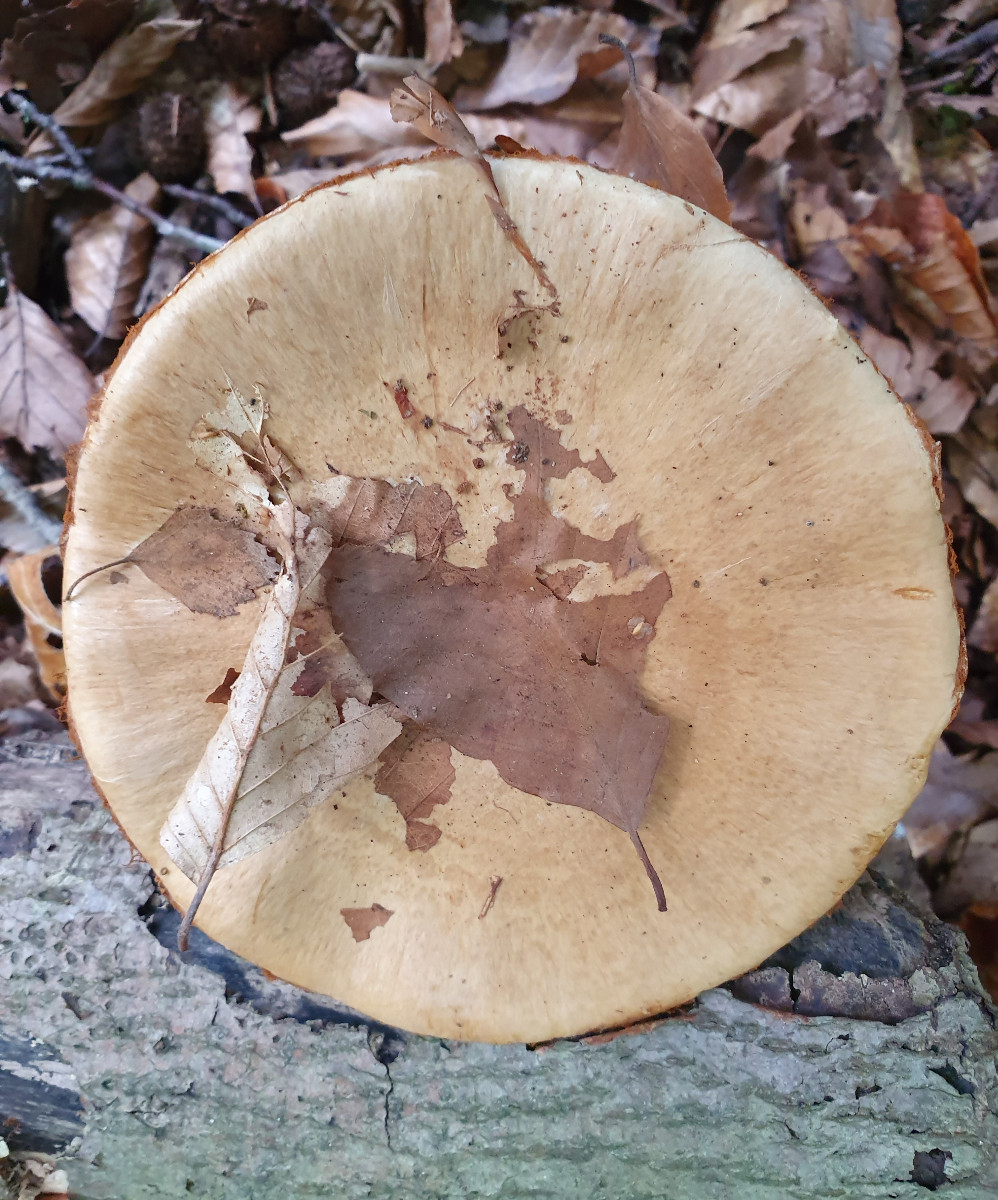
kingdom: Fungi
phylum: Basidiomycota
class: Agaricomycetes
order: Agaricales
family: Cortinariaceae
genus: Cortinarius
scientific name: Cortinarius anserinus
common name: bøge-slørhat
